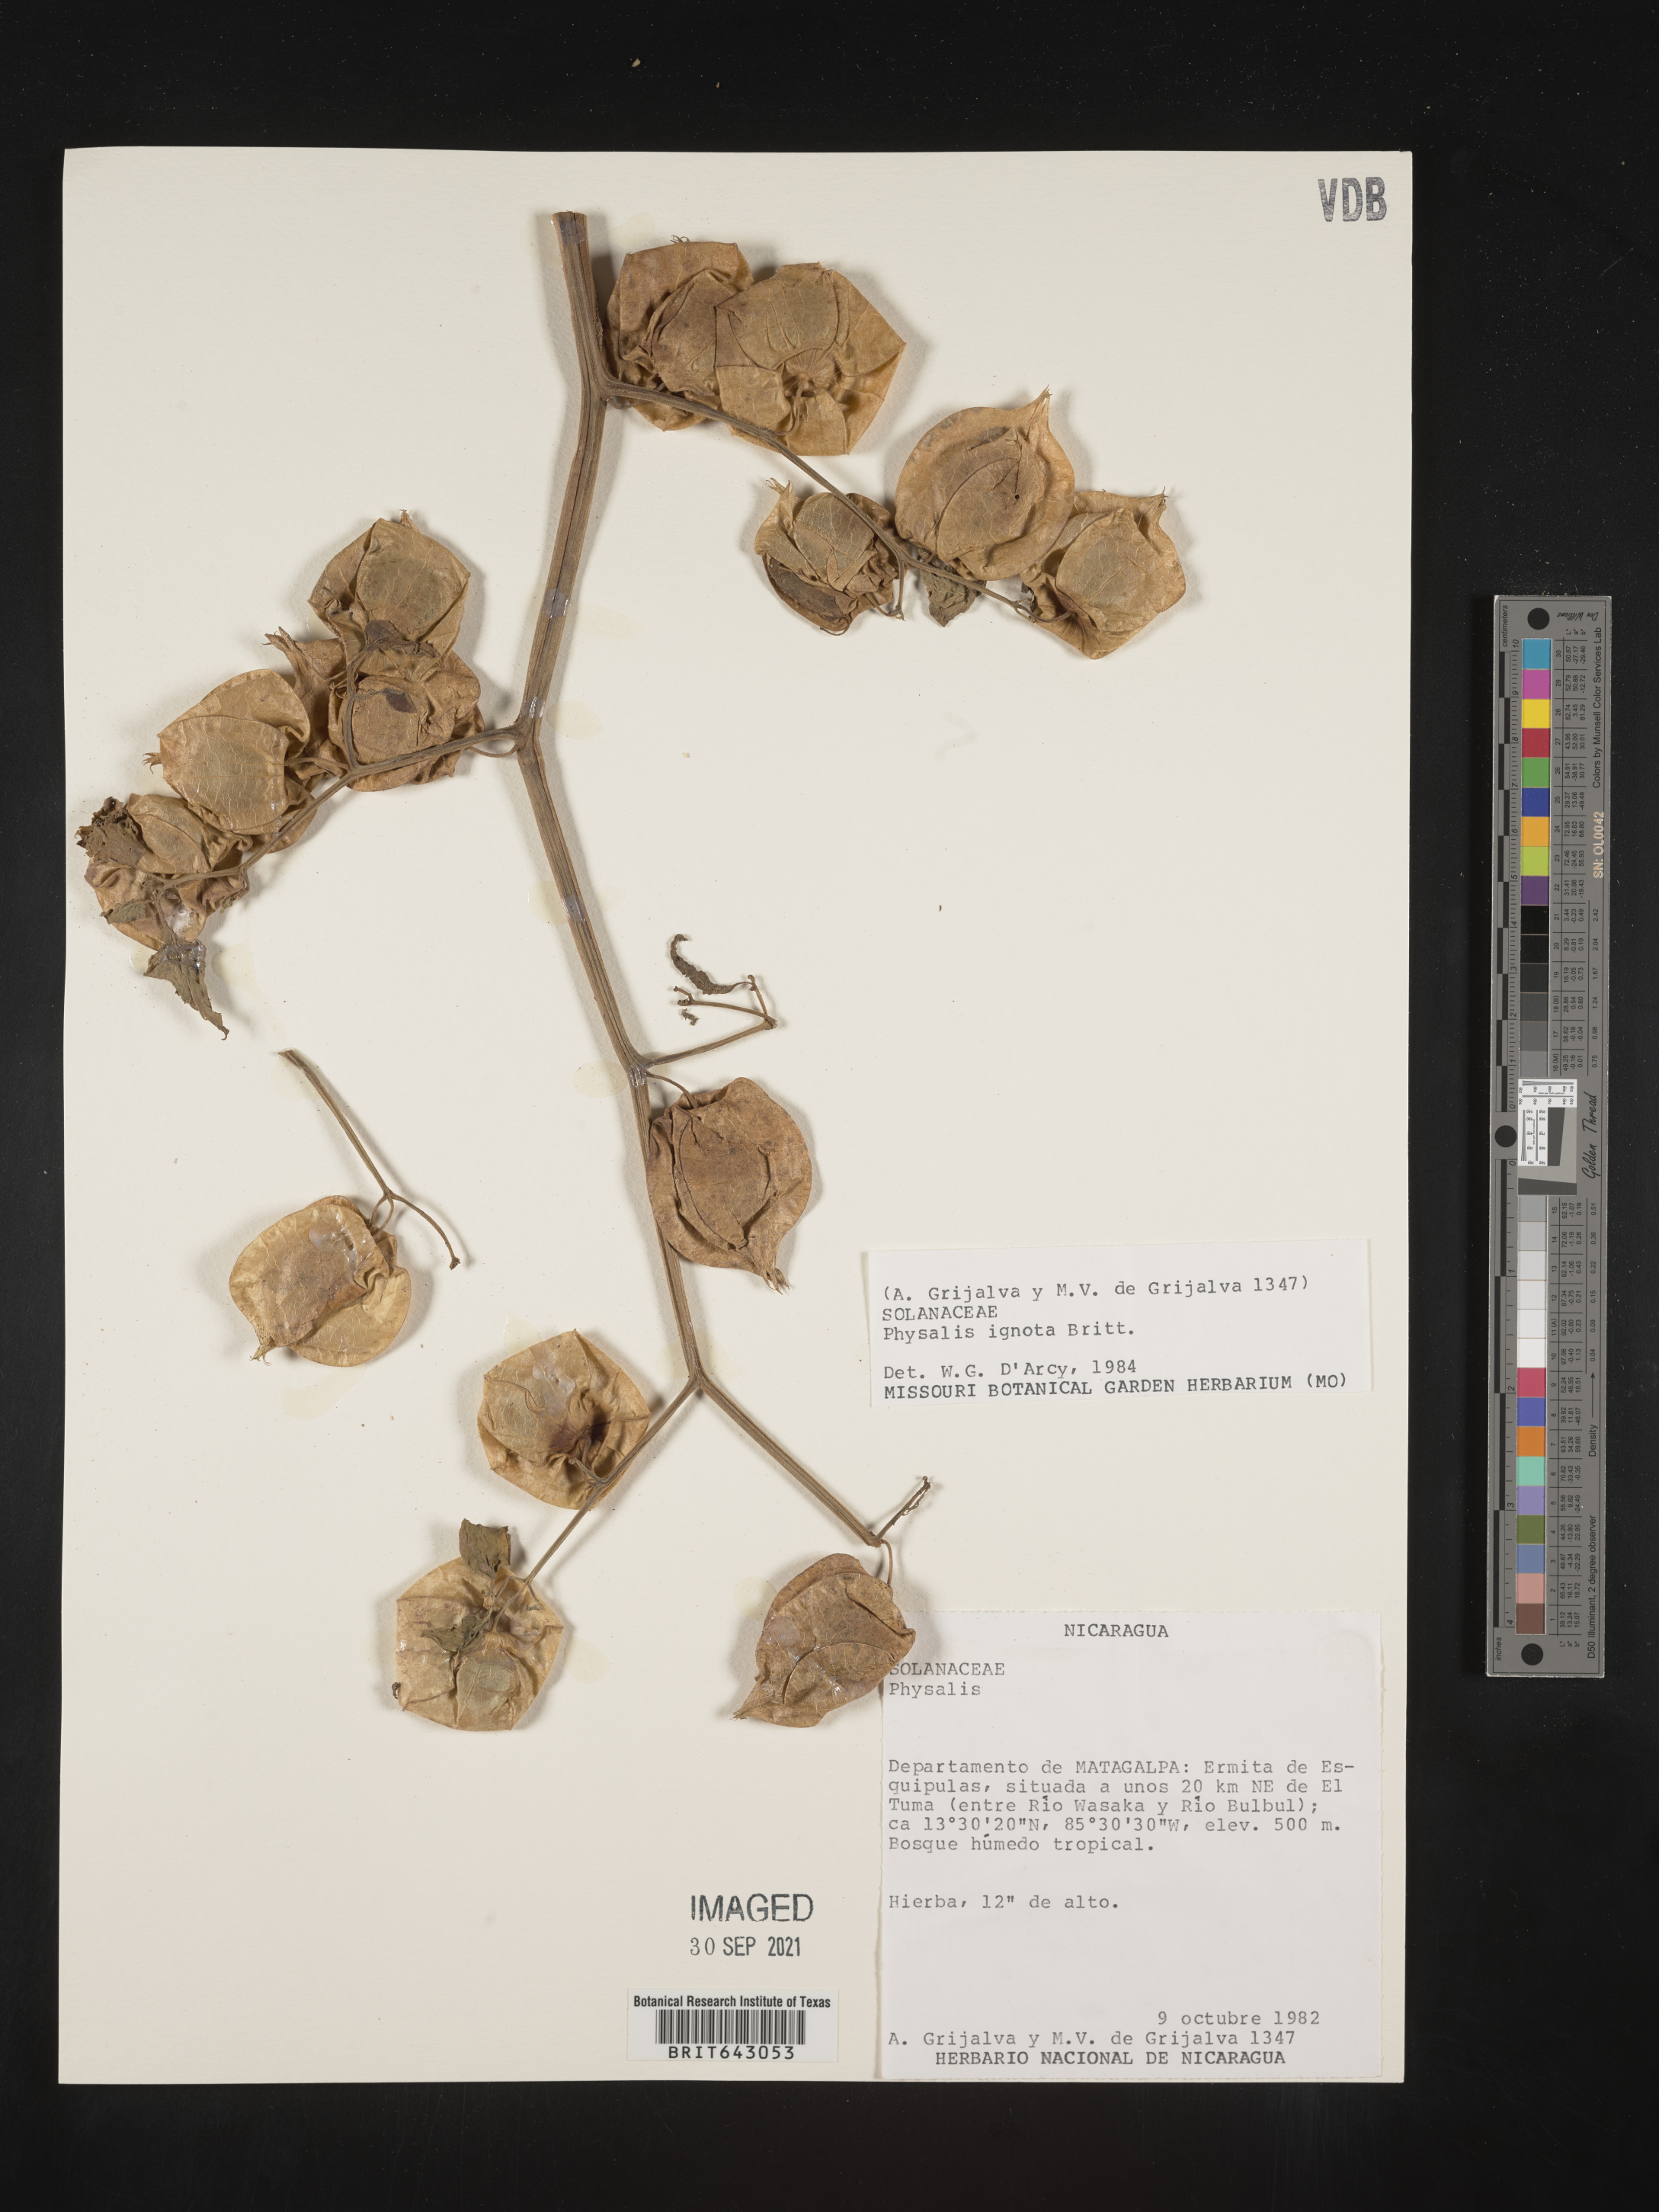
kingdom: Plantae
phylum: Tracheophyta
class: Magnoliopsida
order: Solanales
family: Solanaceae
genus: Physalis
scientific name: Physalis
